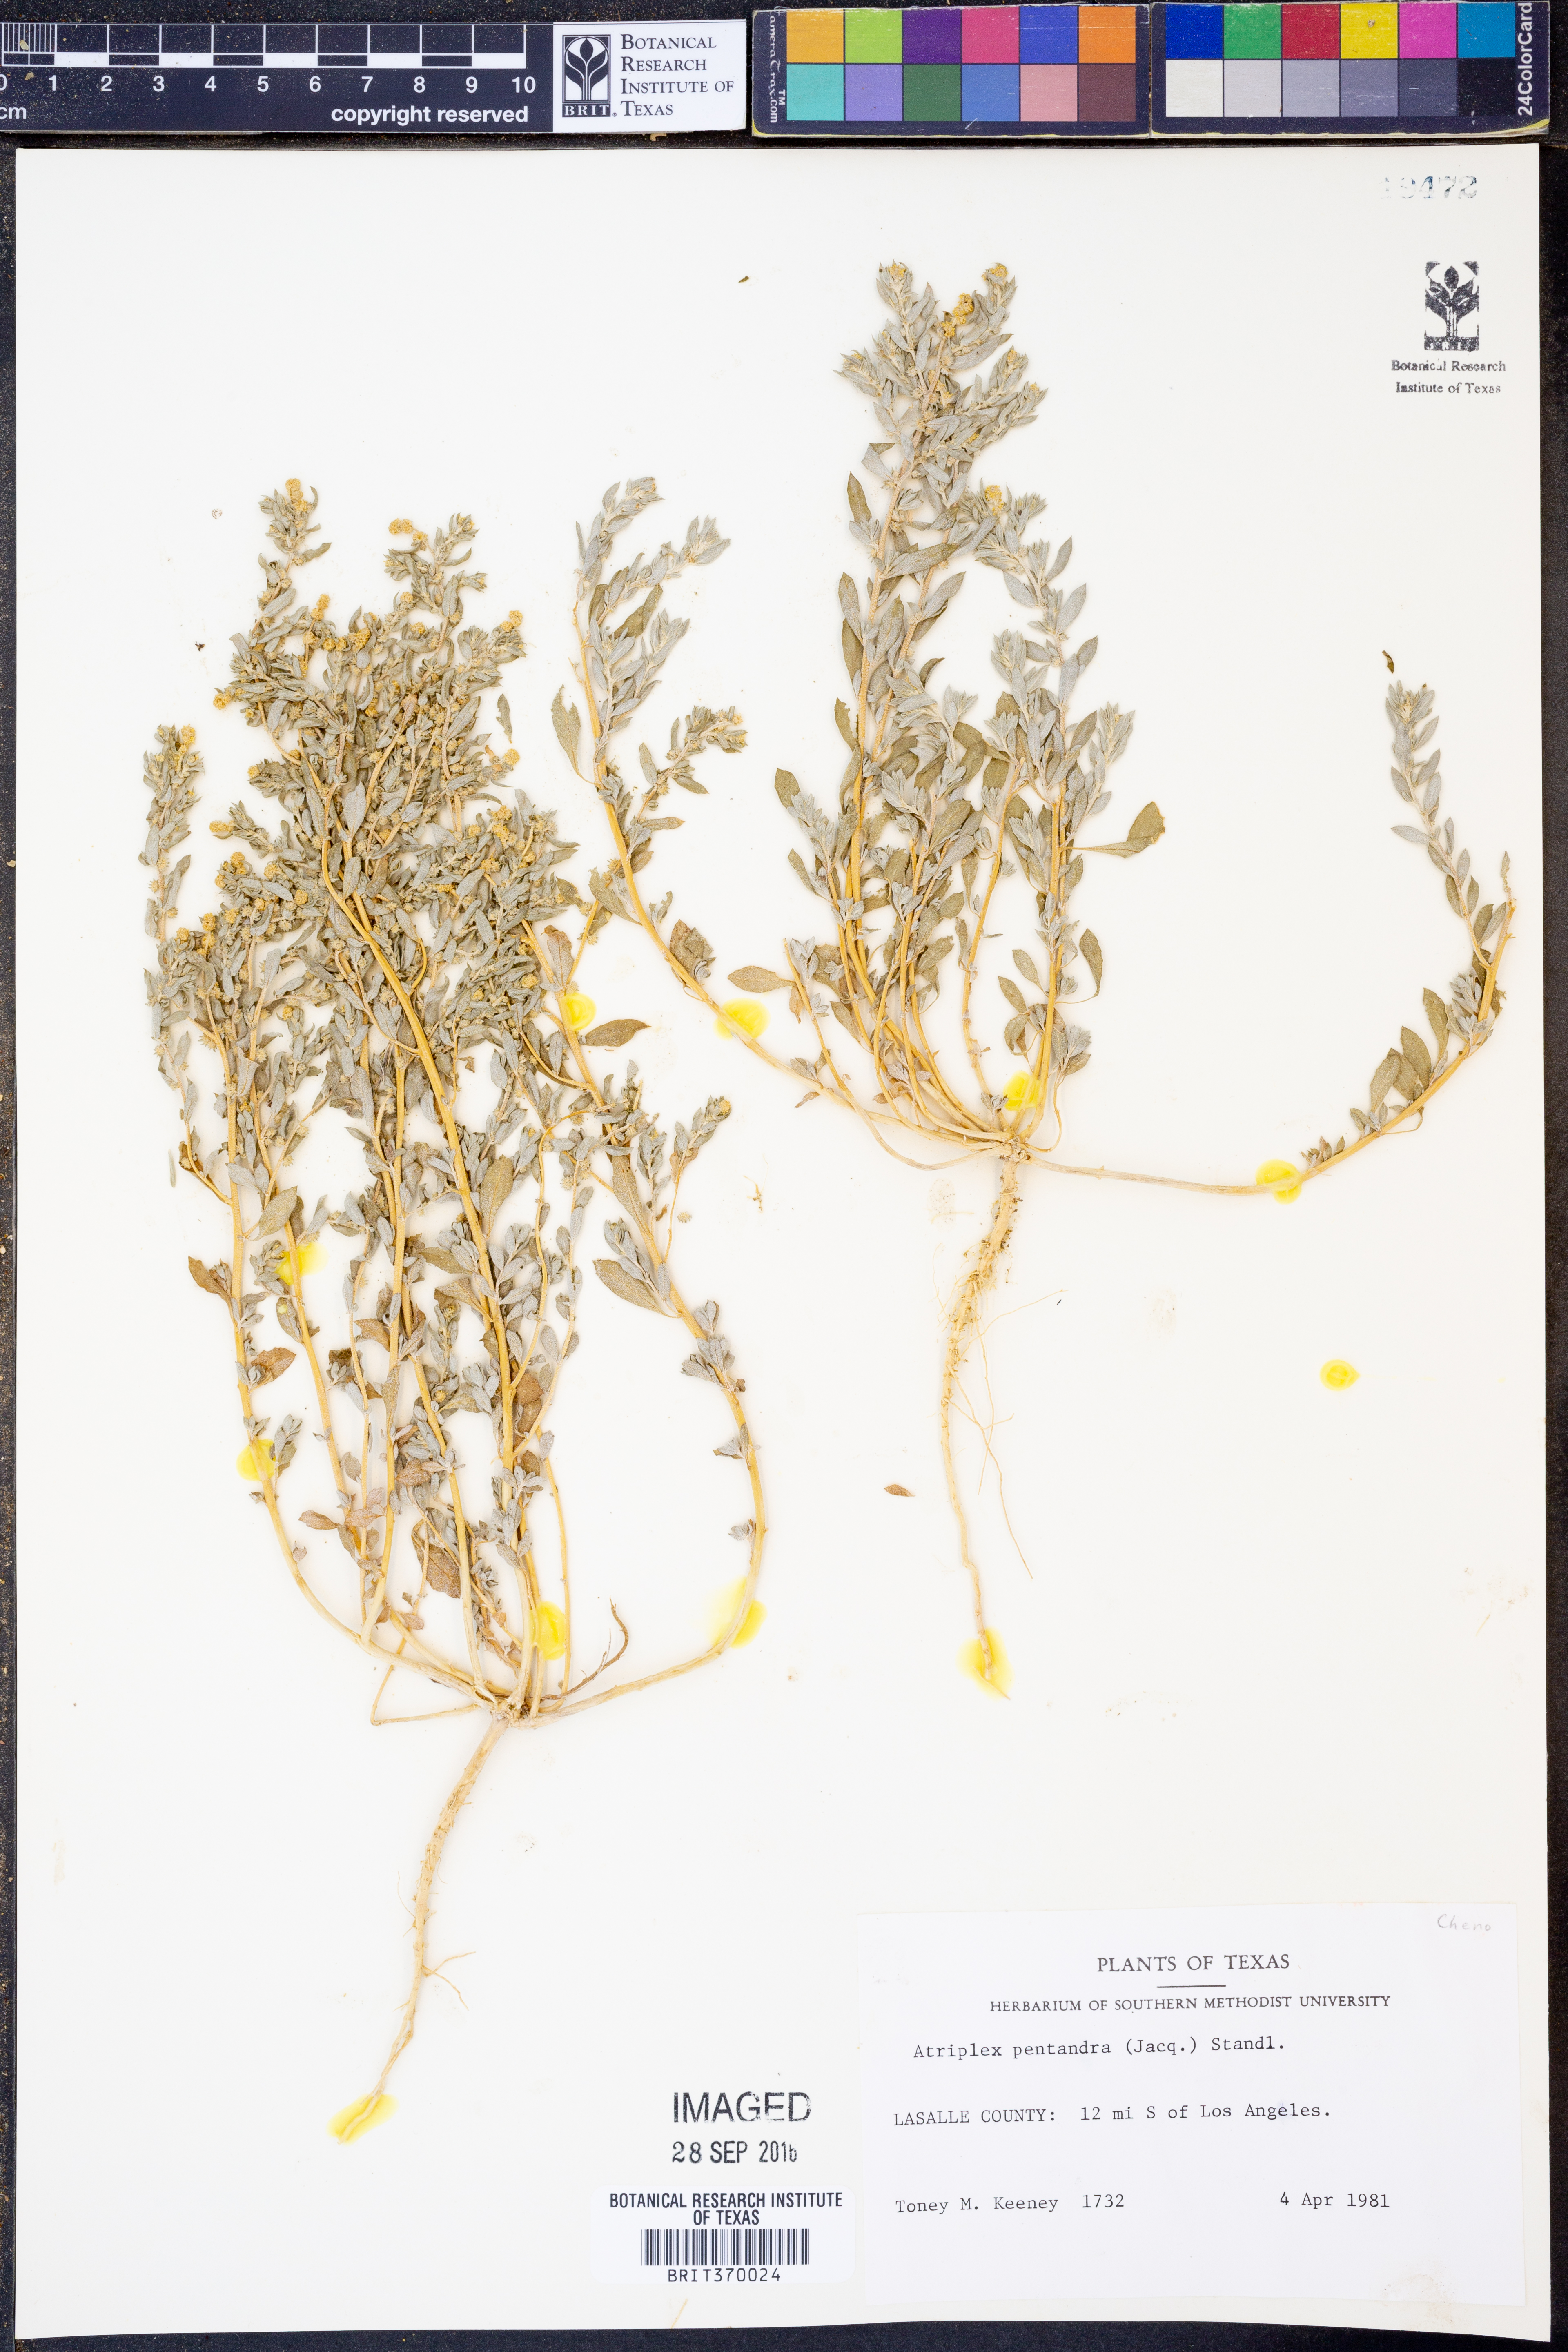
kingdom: Plantae
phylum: Tracheophyta
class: Magnoliopsida
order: Caryophyllales
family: Amaranthaceae
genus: Atriplex
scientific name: Atriplex cristata
